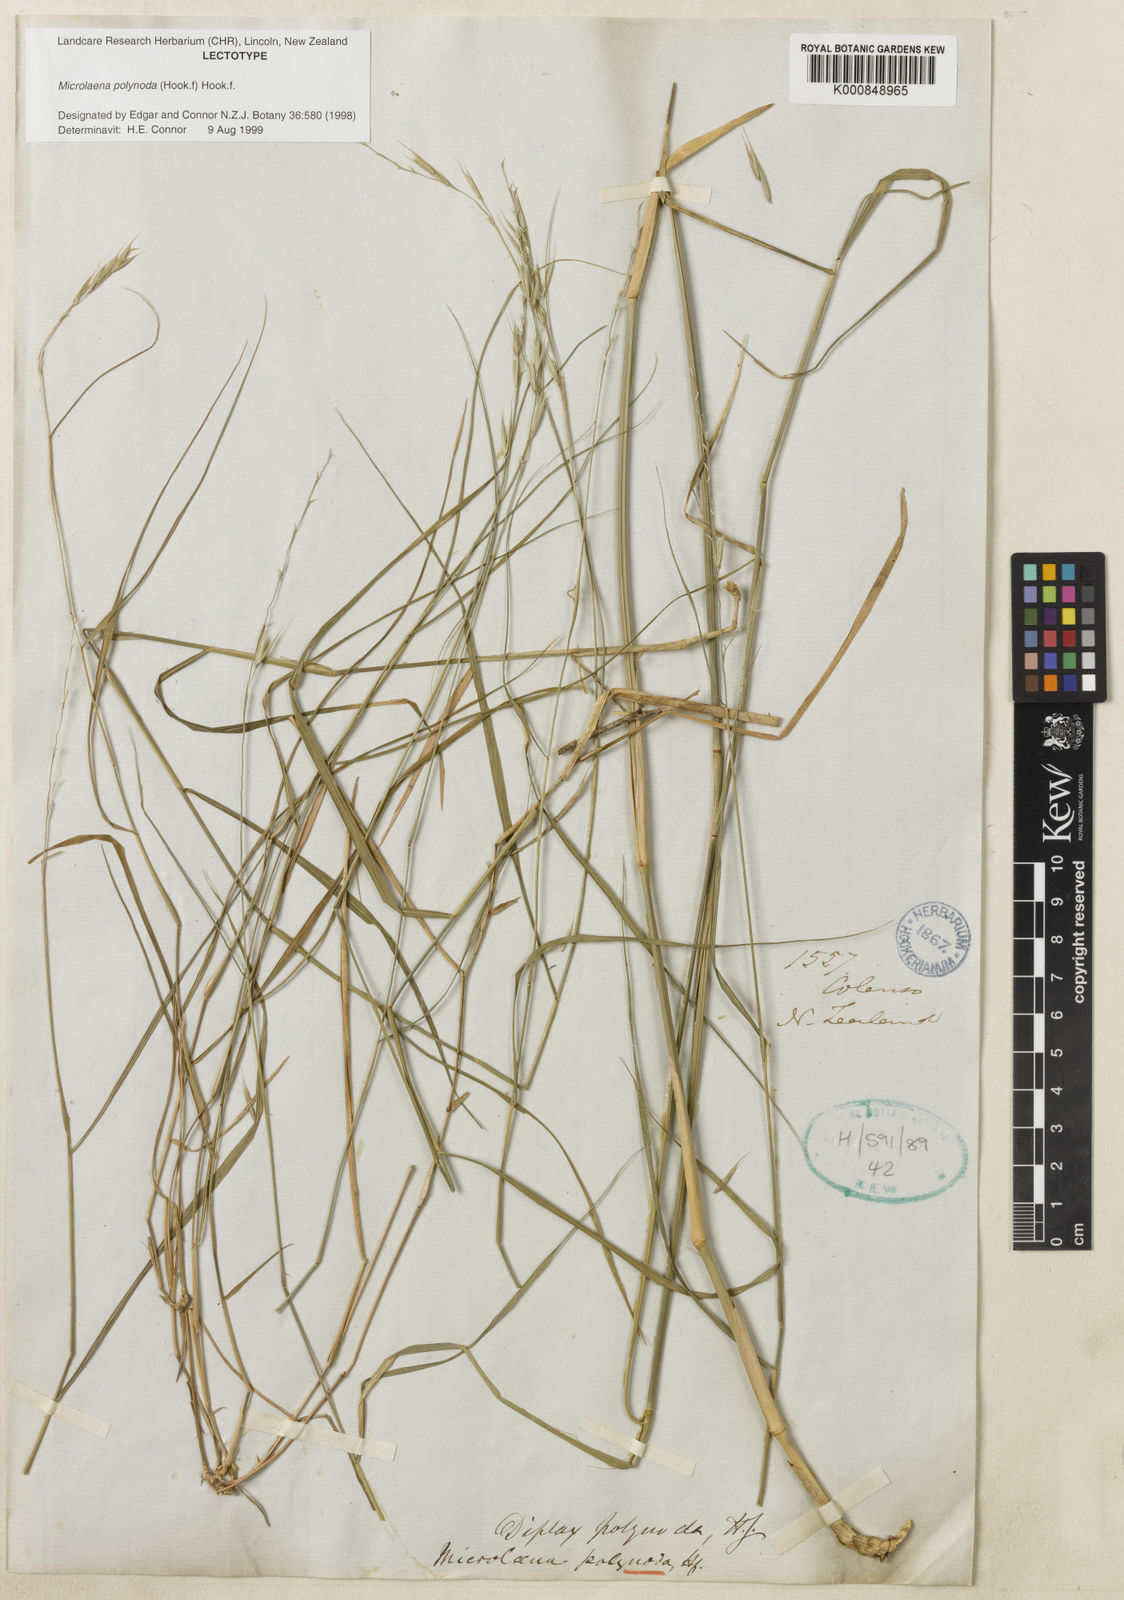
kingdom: Plantae
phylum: Tracheophyta
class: Liliopsida
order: Poales
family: Poaceae
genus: Ehrharta
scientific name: Ehrharta
